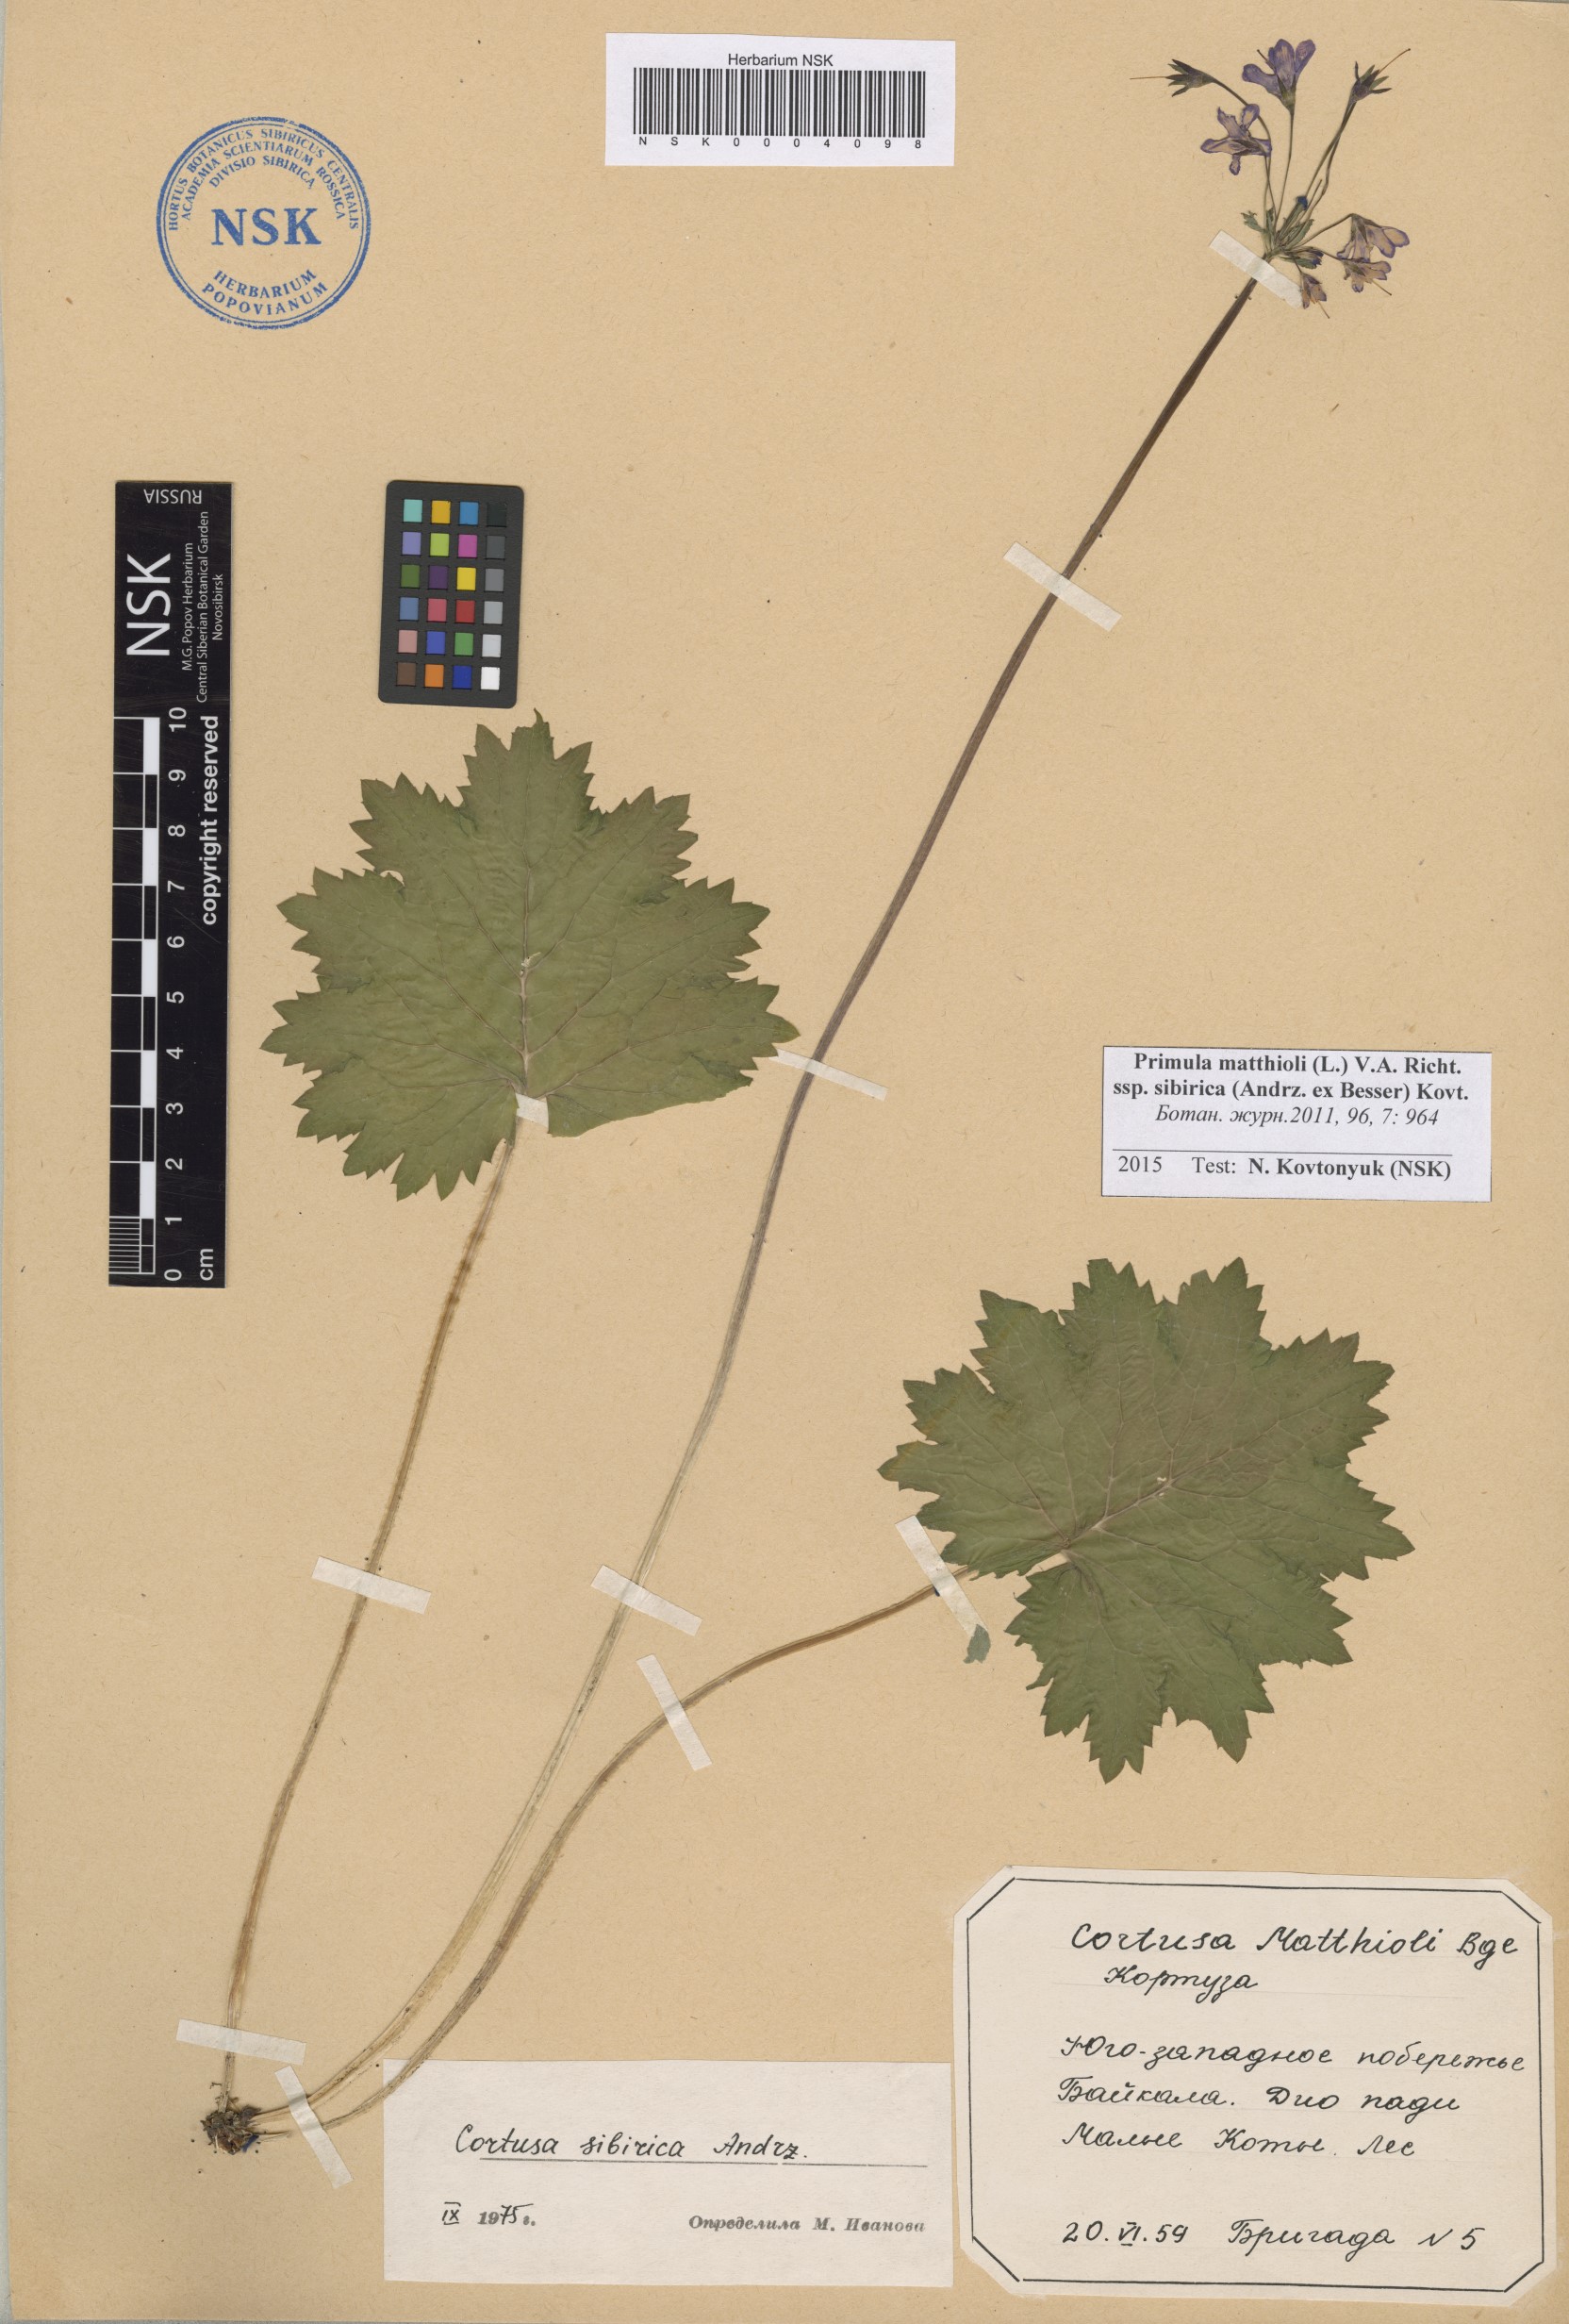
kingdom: Plantae
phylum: Tracheophyta
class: Magnoliopsida
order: Ericales
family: Primulaceae
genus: Primula
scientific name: Primula matthioli
